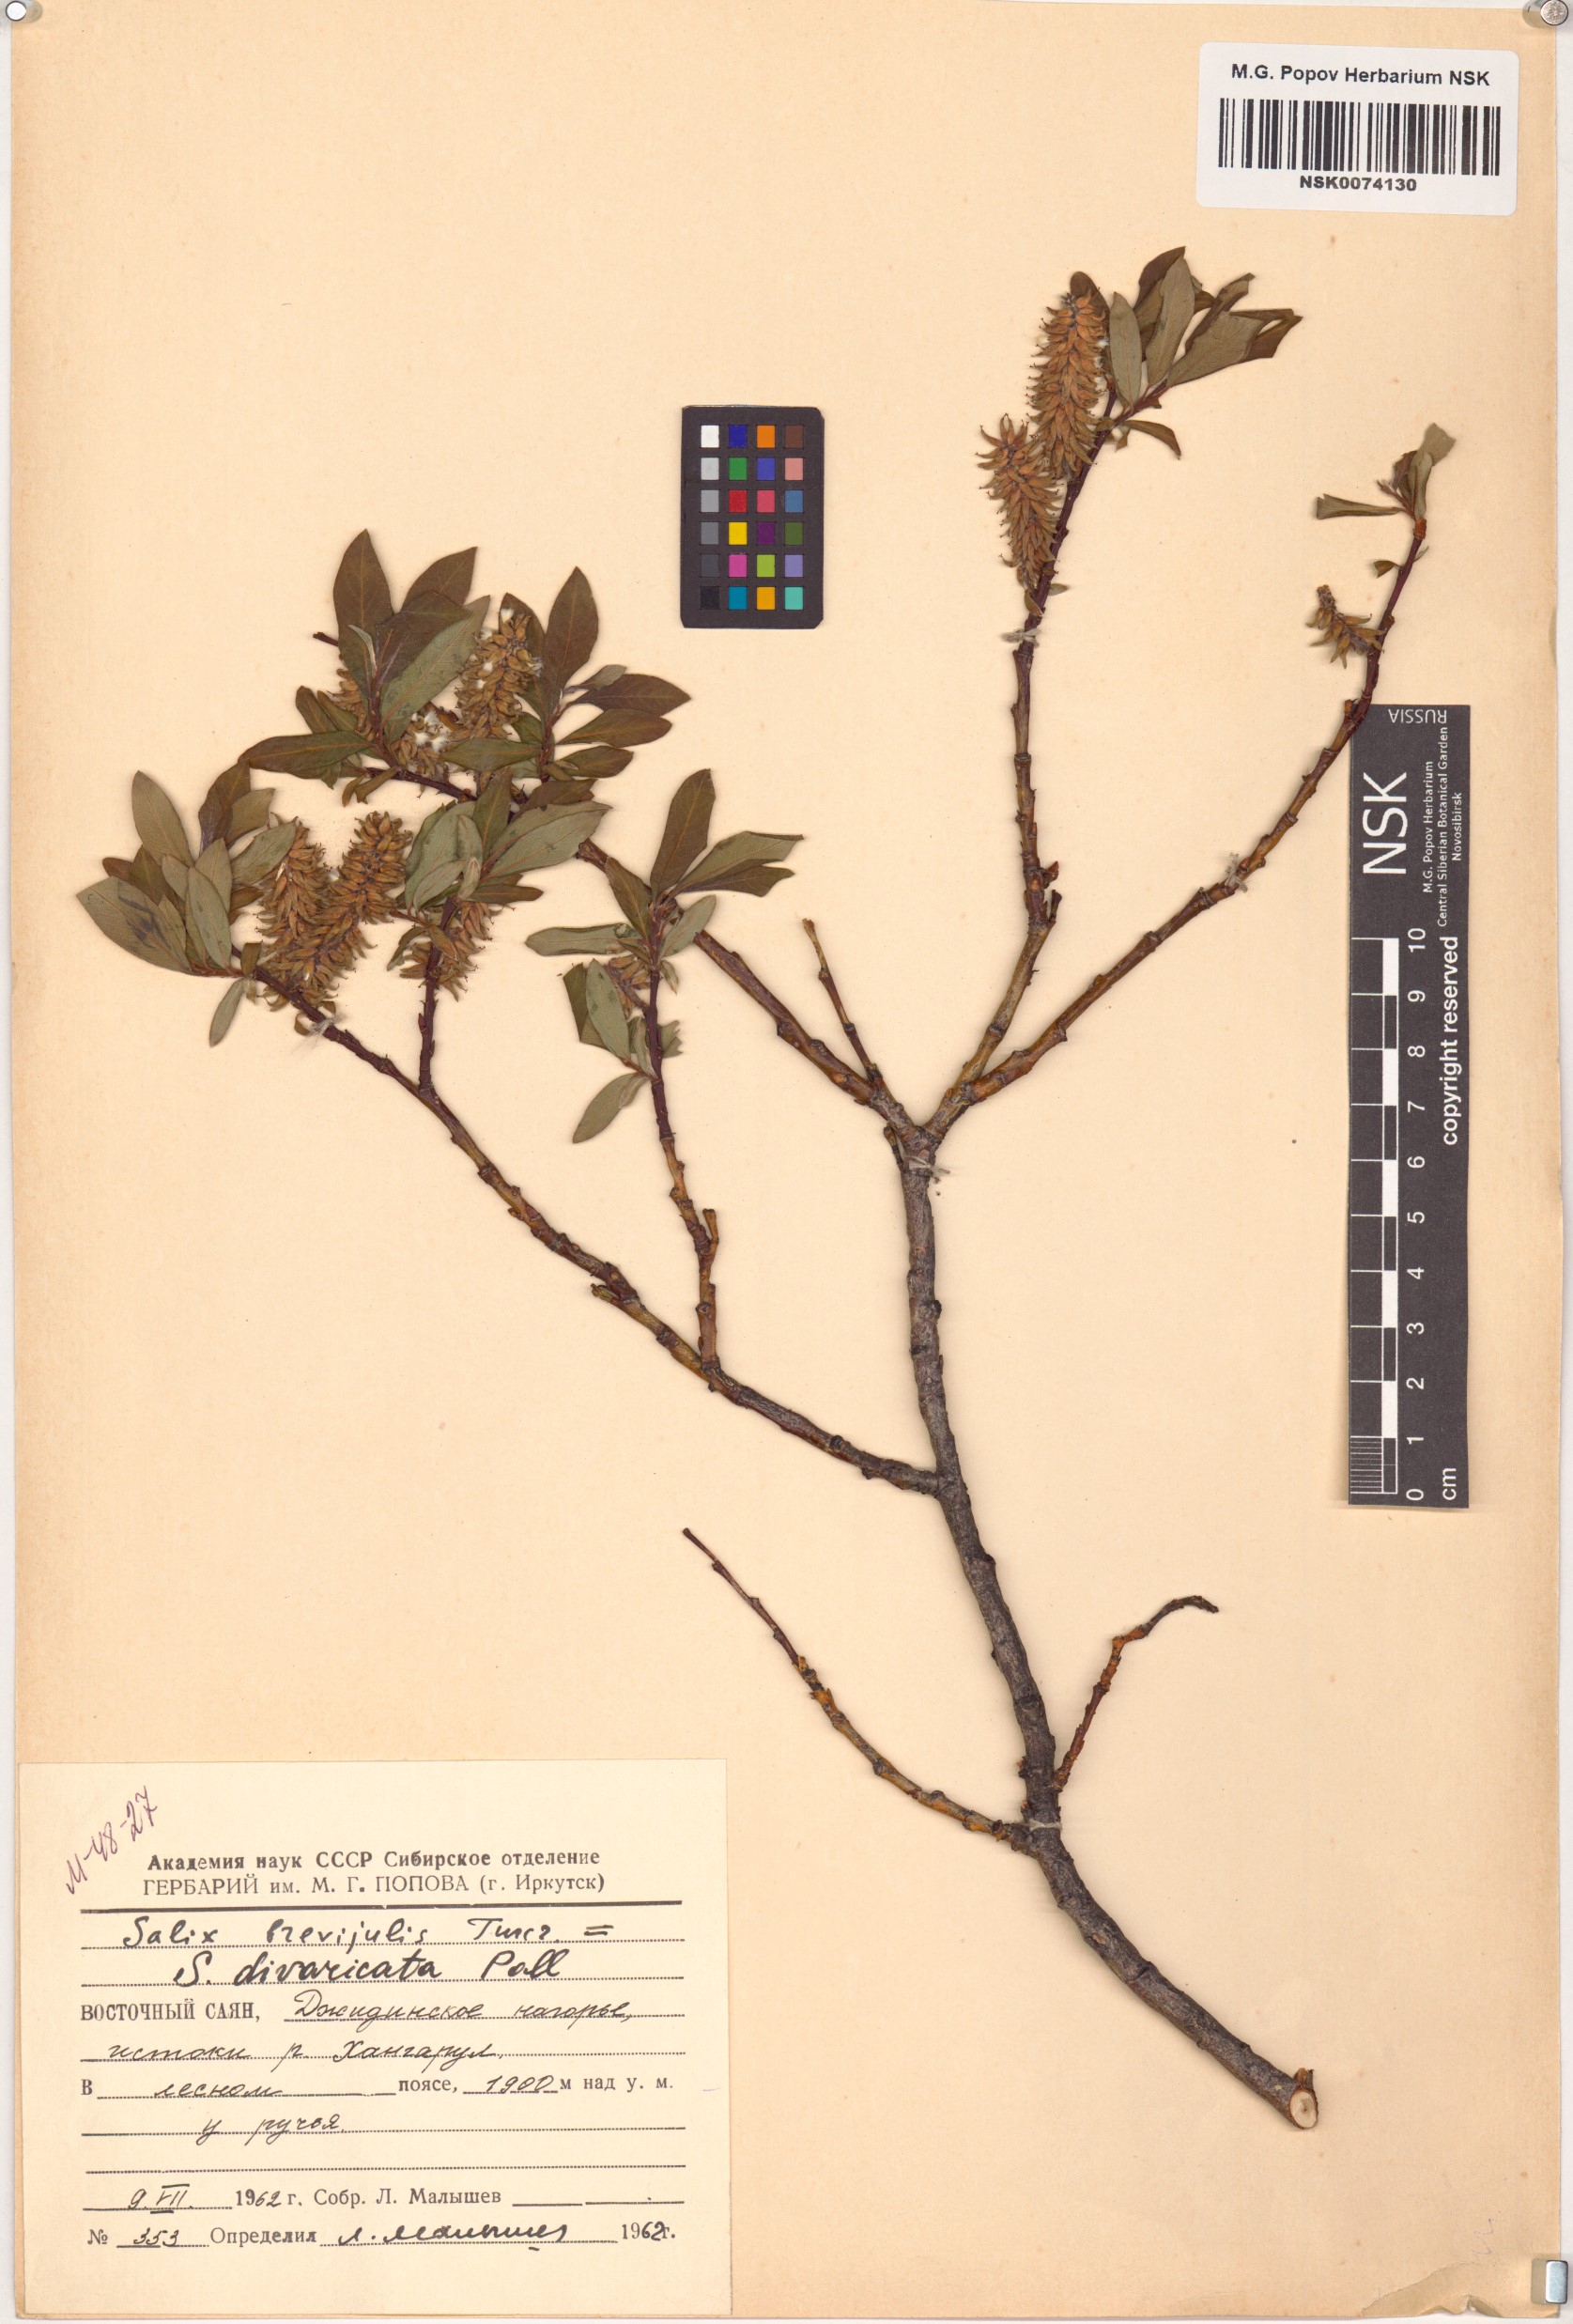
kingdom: Plantae
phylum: Tracheophyta
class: Magnoliopsida
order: Malpighiales
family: Salicaceae
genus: Salix
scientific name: Salix divaricata
